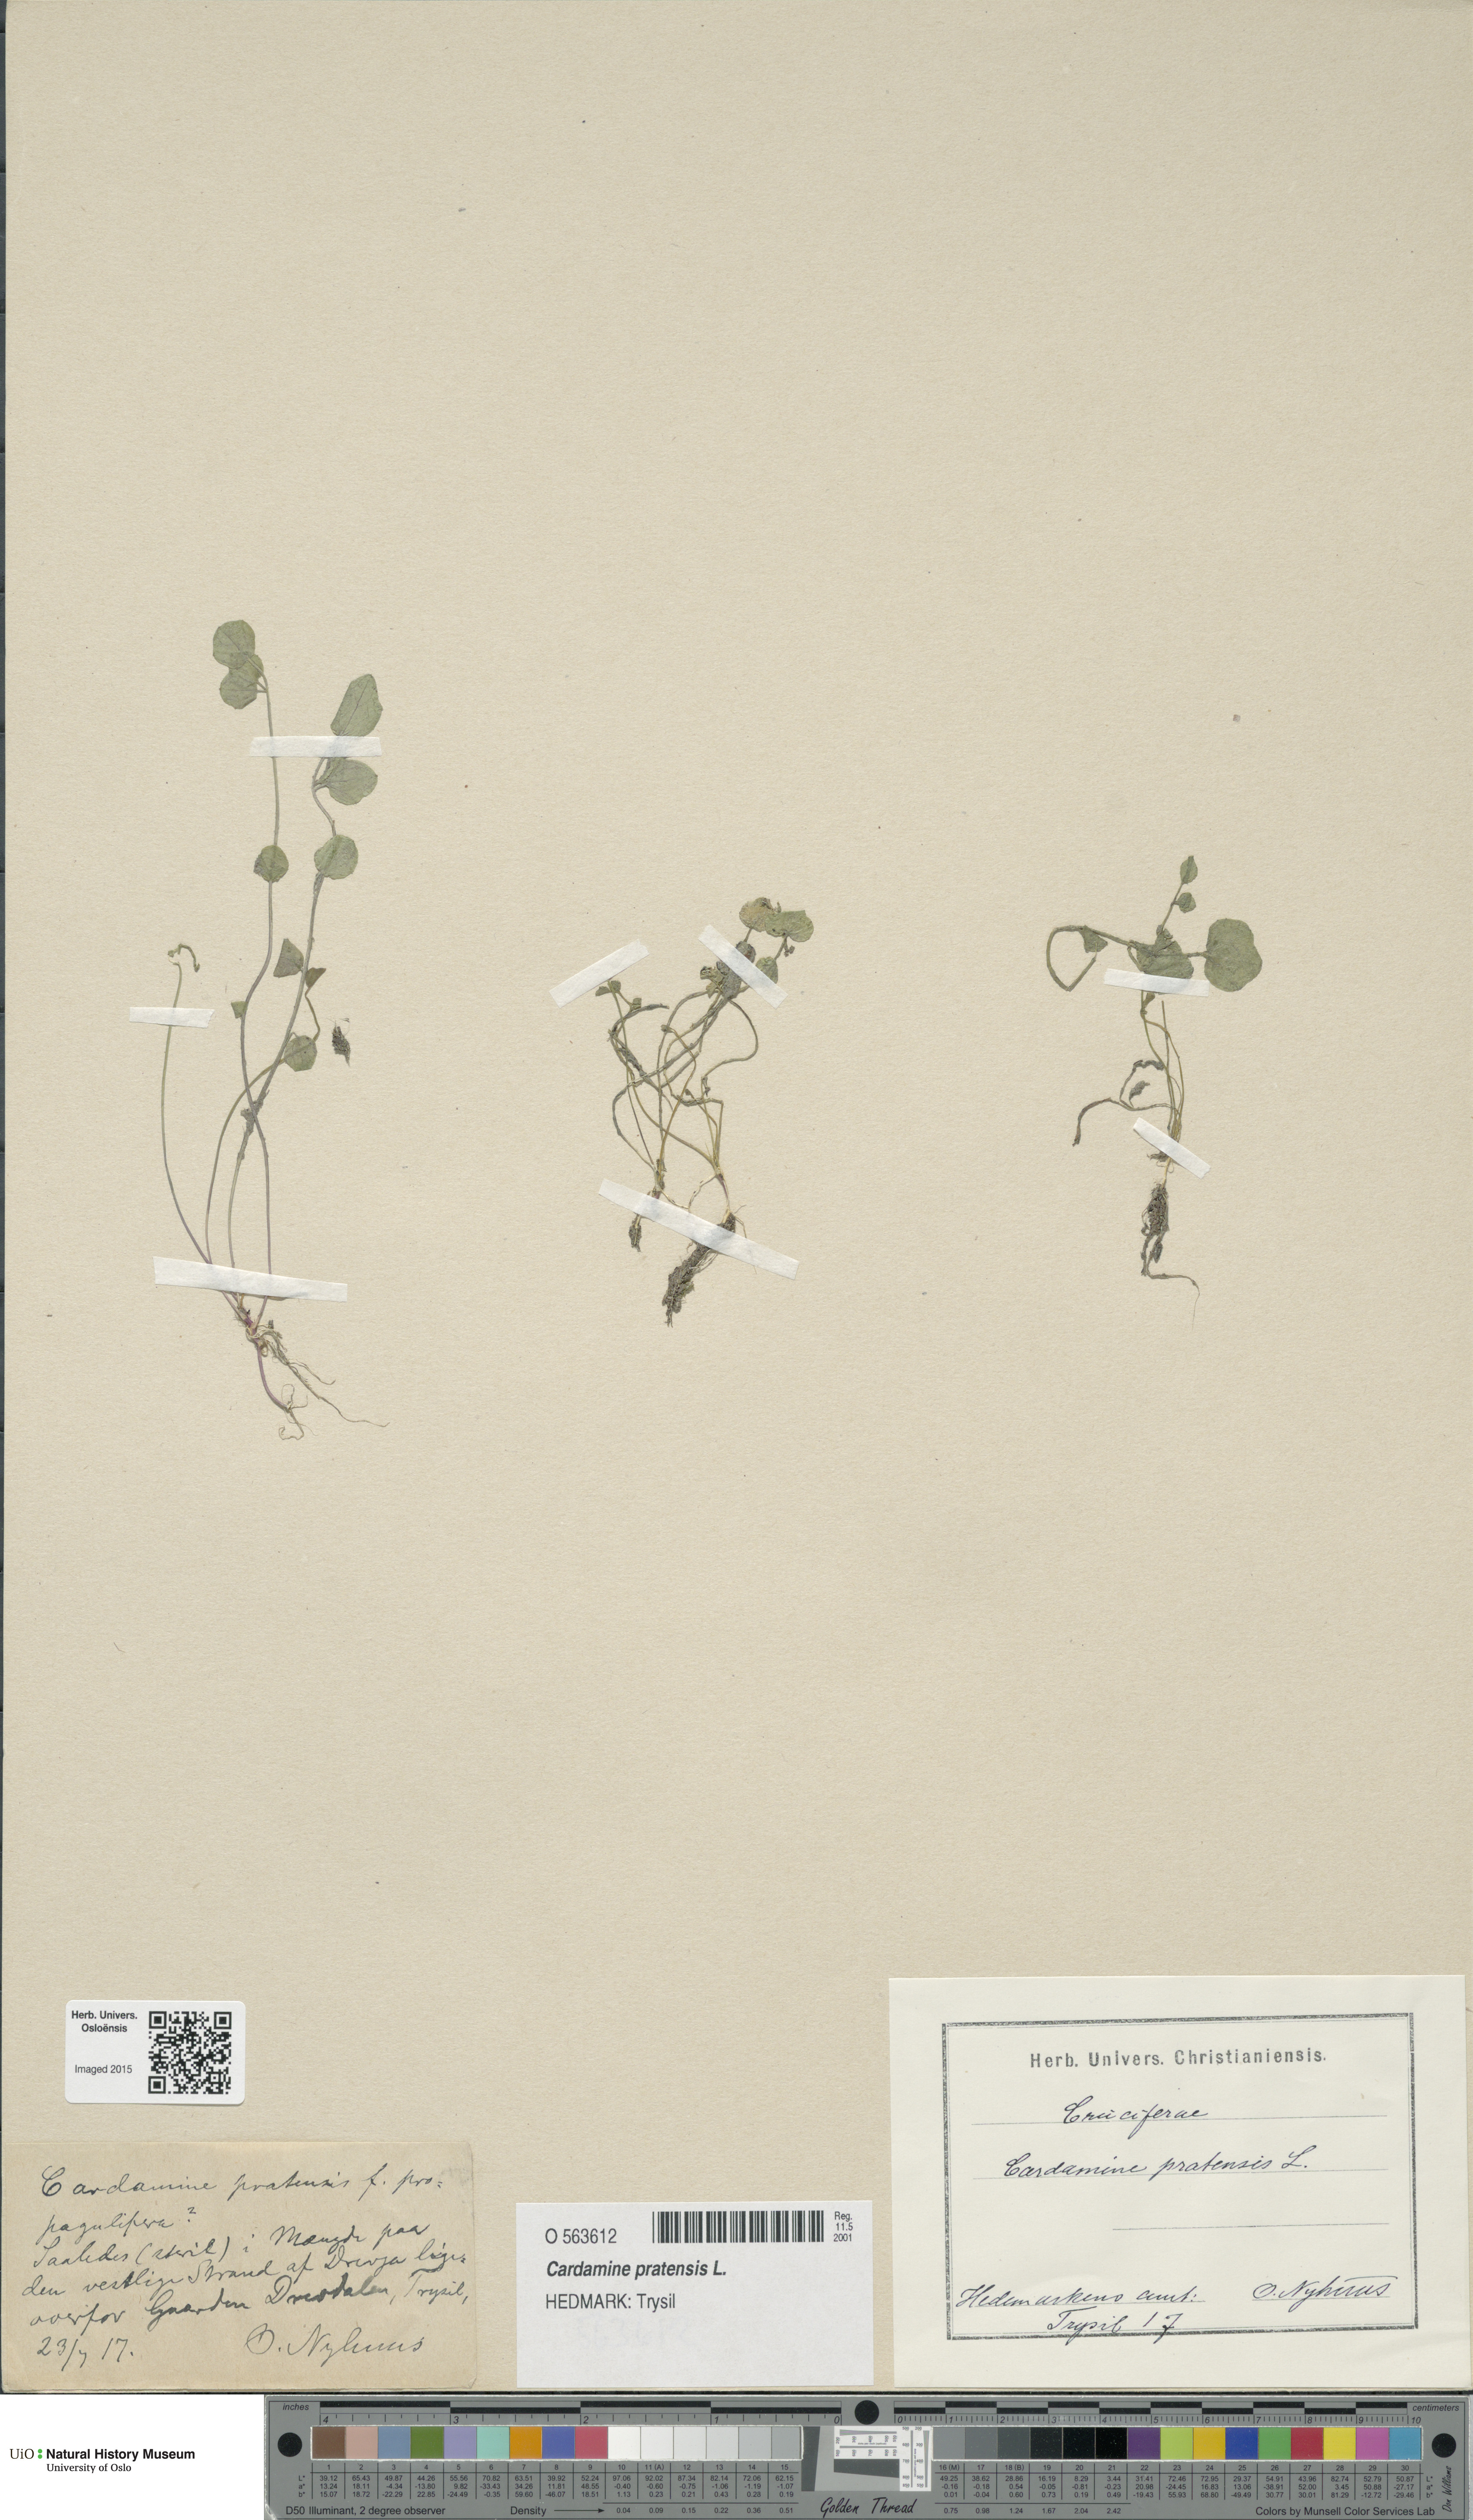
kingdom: Plantae
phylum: Tracheophyta
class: Magnoliopsida
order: Brassicales
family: Brassicaceae
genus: Cardamine
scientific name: Cardamine pratensis
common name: Cuckoo flower
